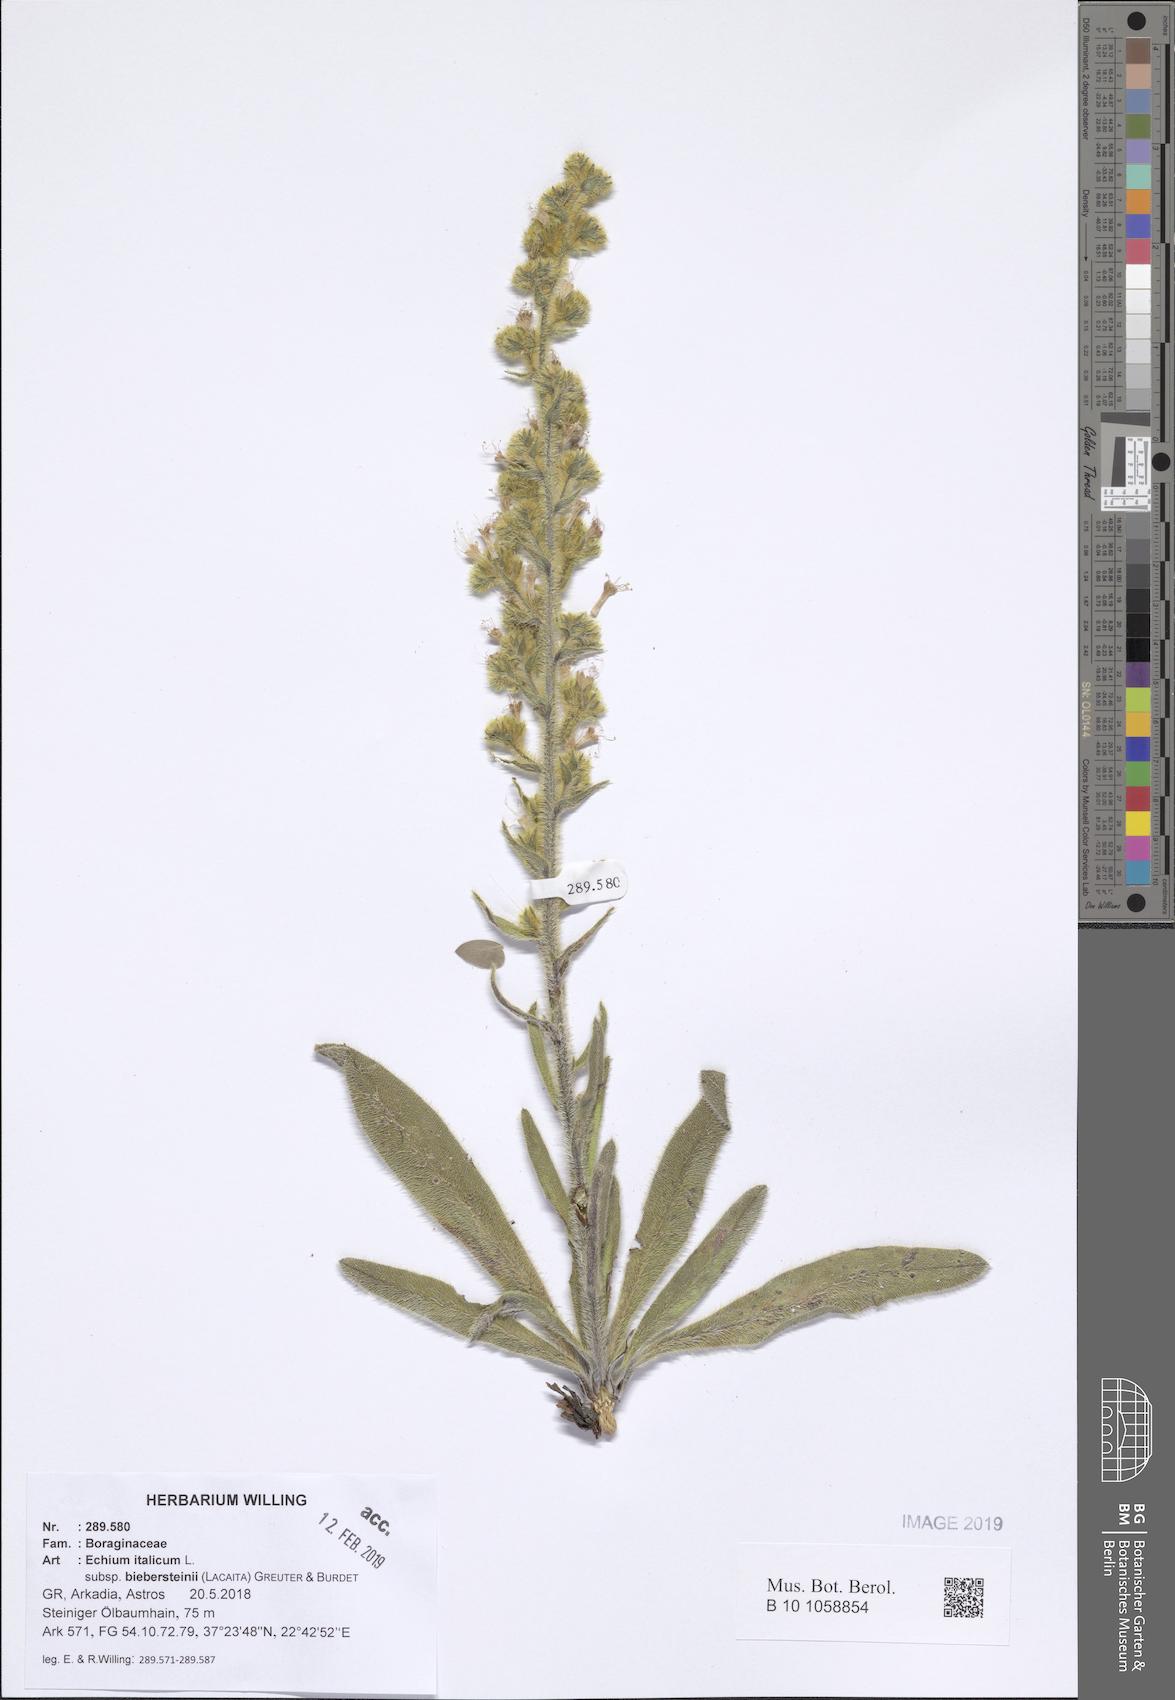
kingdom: Plantae
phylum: Tracheophyta
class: Magnoliopsida
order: Boraginales
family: Boraginaceae
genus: Echium
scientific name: Echium italicum
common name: Italian viper's bugloss
